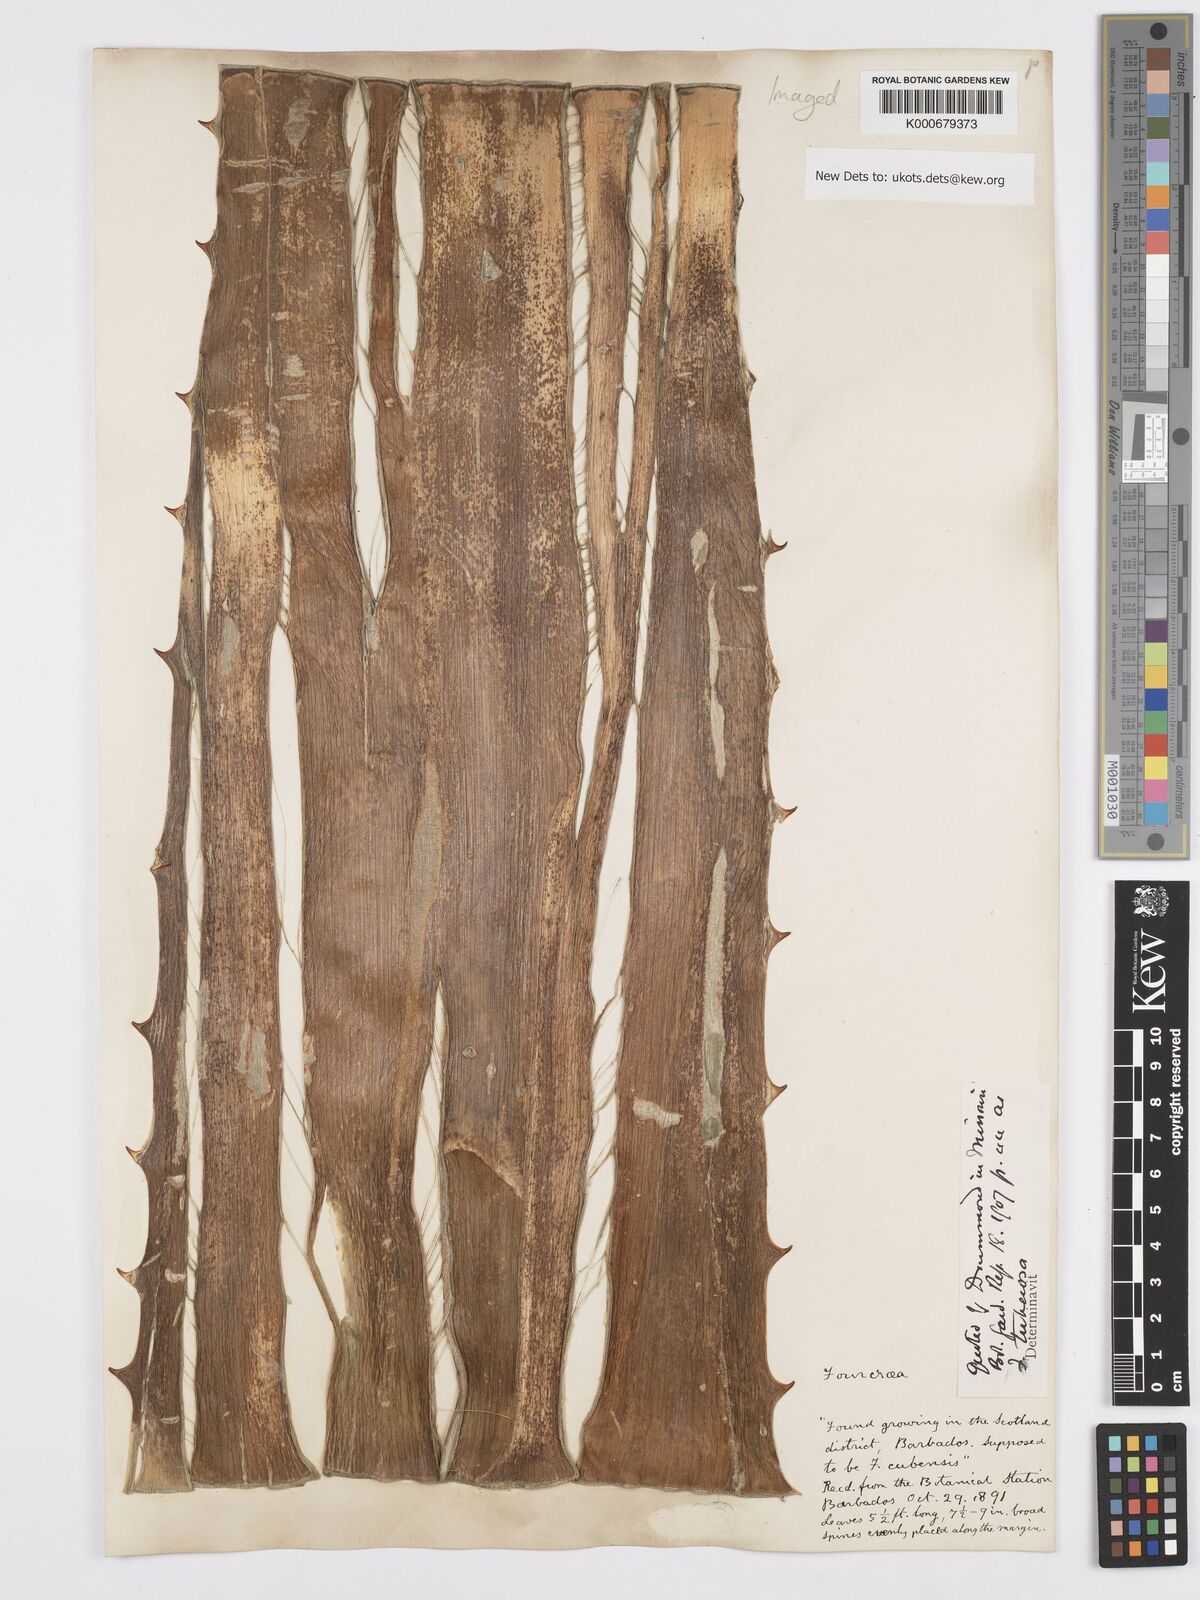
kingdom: Plantae
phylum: Tracheophyta
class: Liliopsida
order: Asparagales
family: Asparagaceae
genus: Furcraea
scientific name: Furcraea foetida
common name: Mauritius hemp
